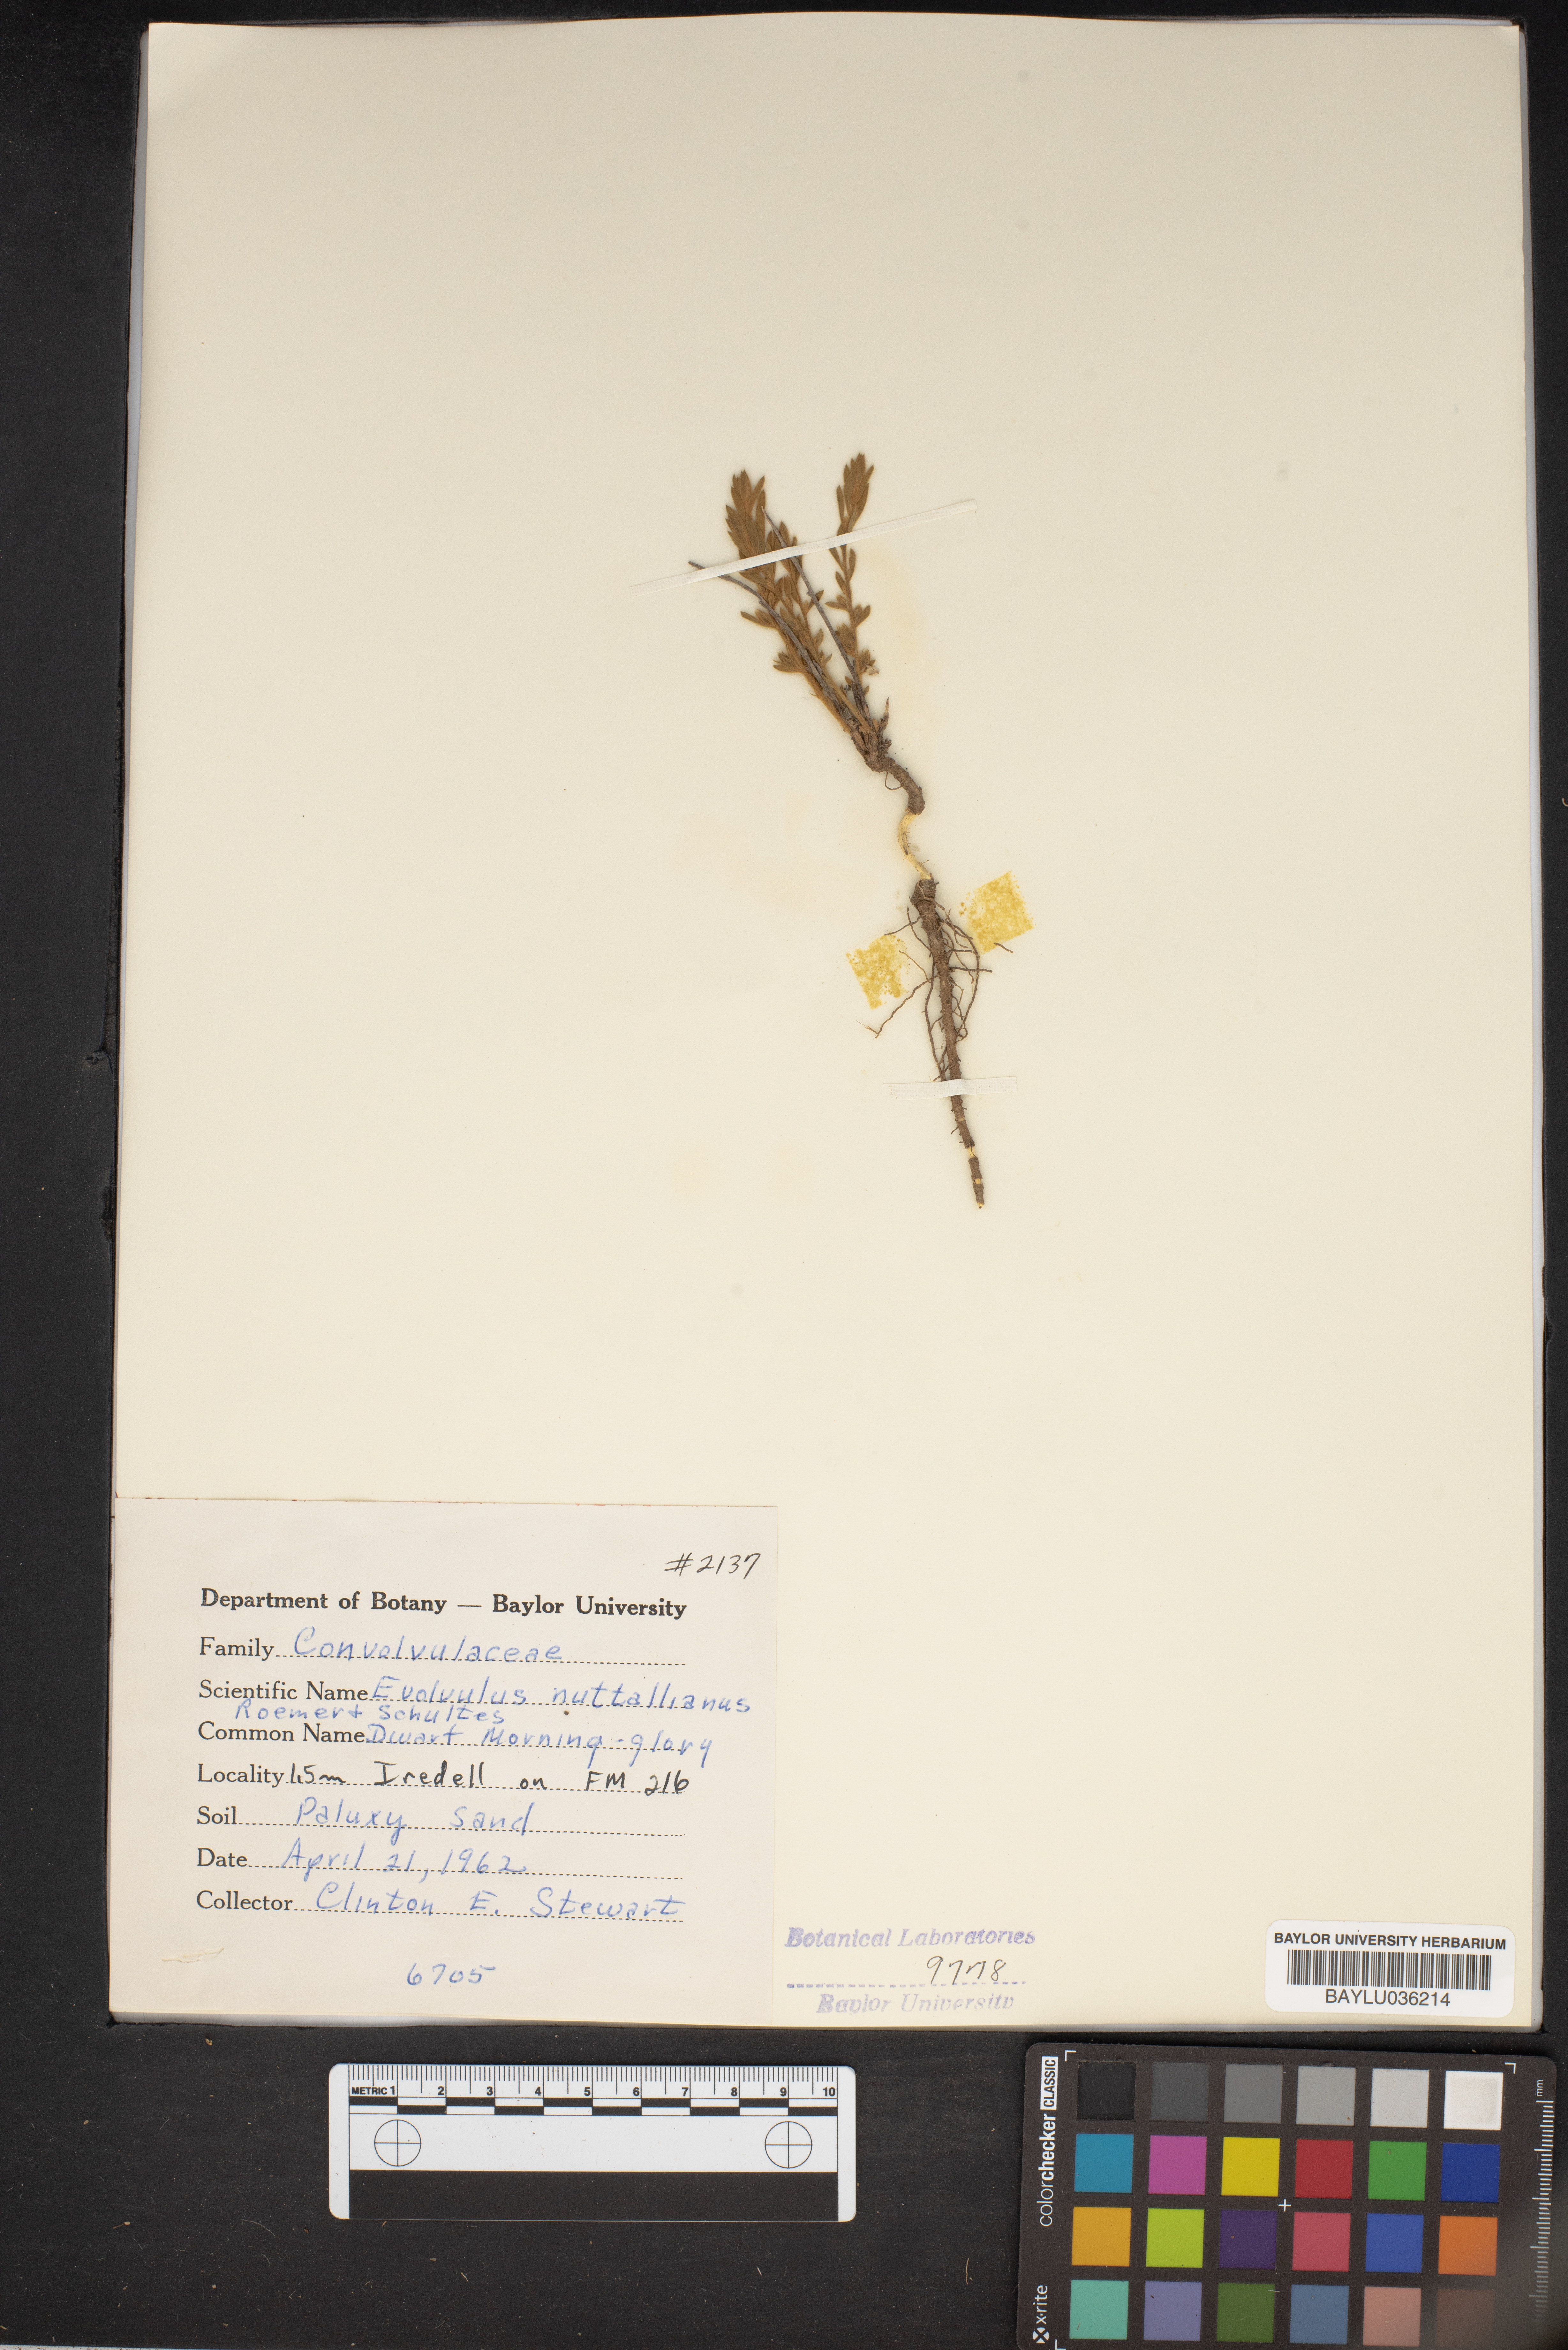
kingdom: Plantae
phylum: Tracheophyta
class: Magnoliopsida
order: Solanales
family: Convolvulaceae
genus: Evolvulus
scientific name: Evolvulus nuttallianus
